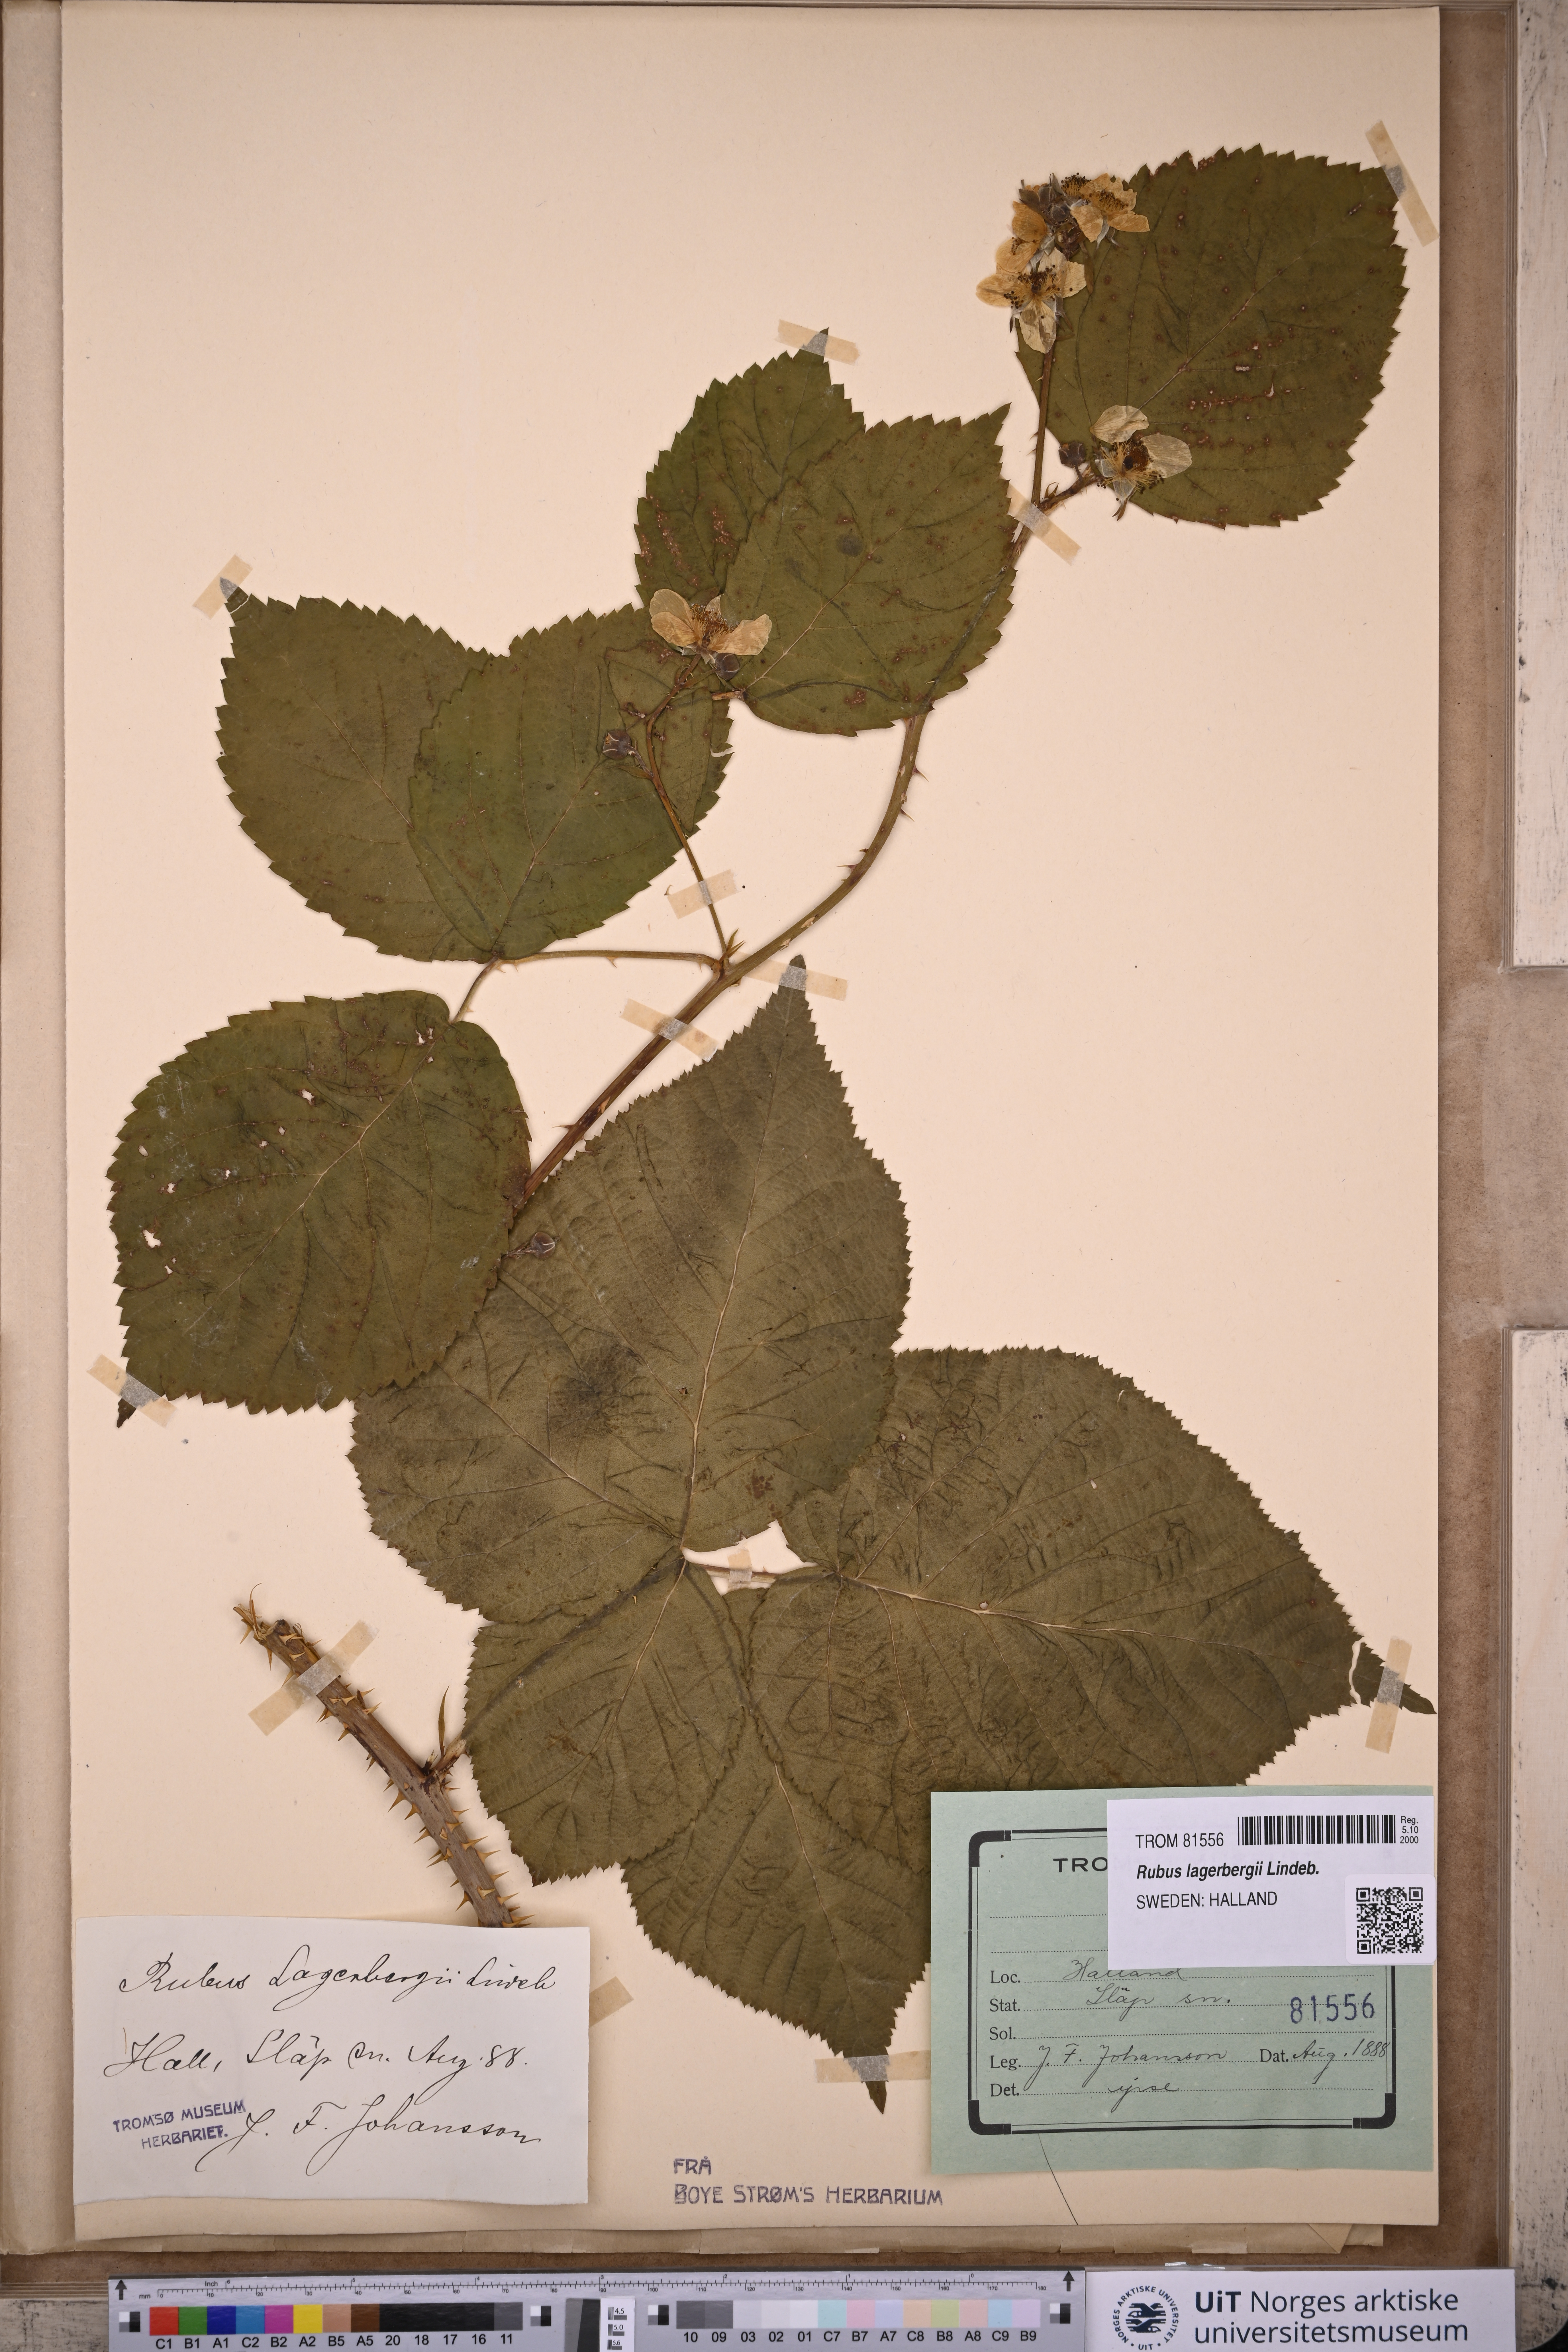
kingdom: Plantae
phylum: Tracheophyta
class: Magnoliopsida
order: Rosales
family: Rosaceae
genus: Rubus
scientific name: Rubus lagerbergii
